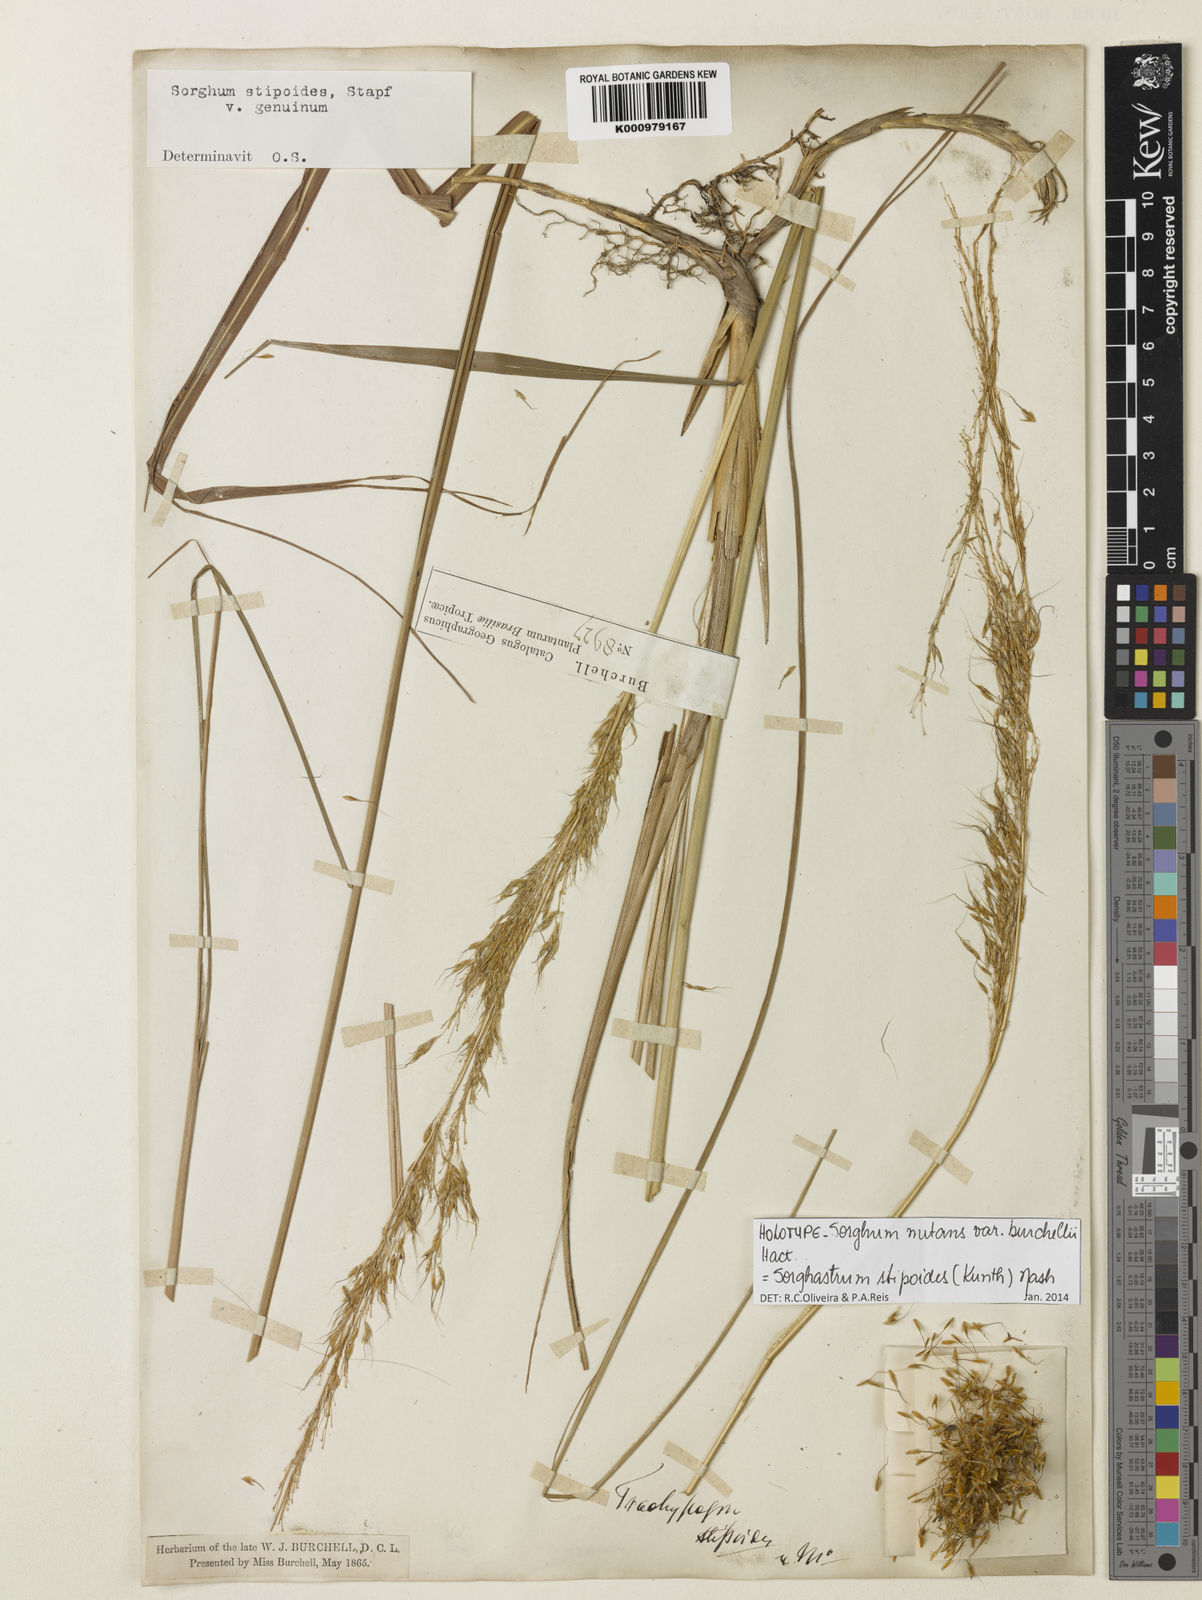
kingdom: Plantae
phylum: Tracheophyta
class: Liliopsida
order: Poales
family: Poaceae
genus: Sorghastrum
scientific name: Sorghastrum stipoides
